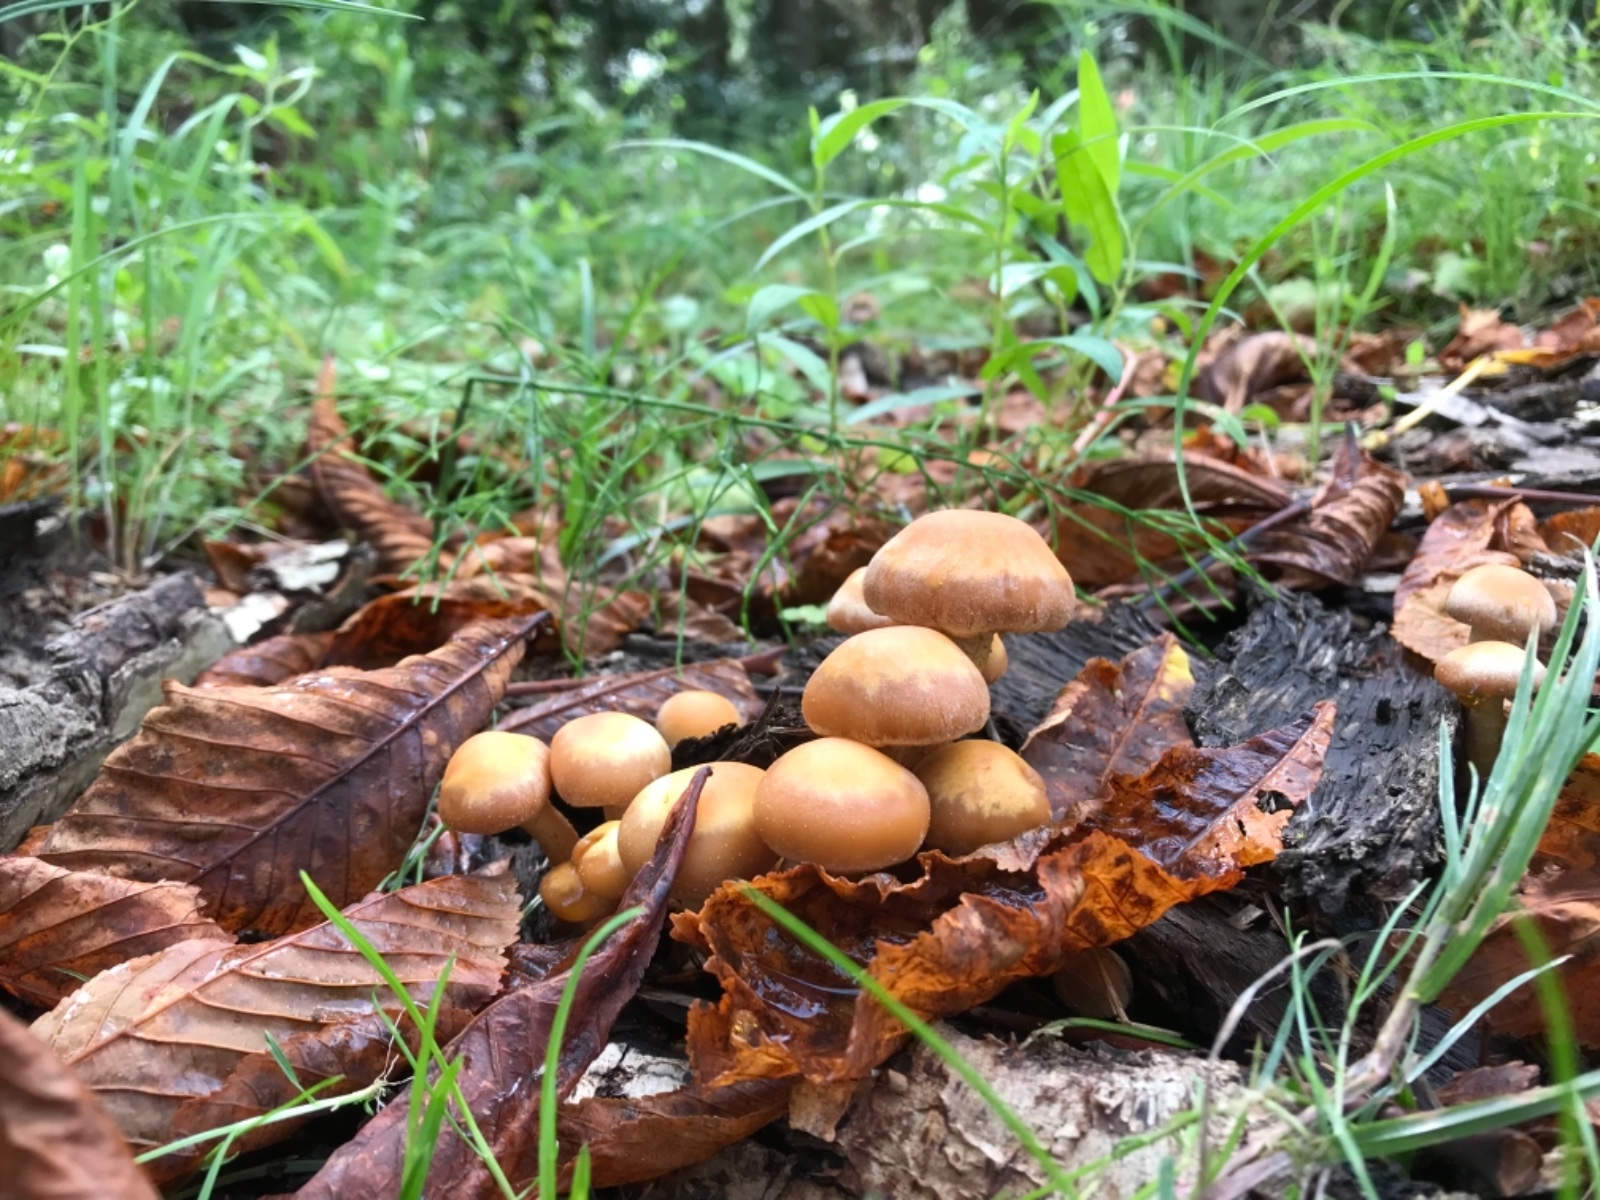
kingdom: Fungi
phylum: Basidiomycota
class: Agaricomycetes
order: Agaricales
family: Strophariaceae
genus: Kuehneromyces
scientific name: Kuehneromyces mutabilis
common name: foranderlig skælhat
